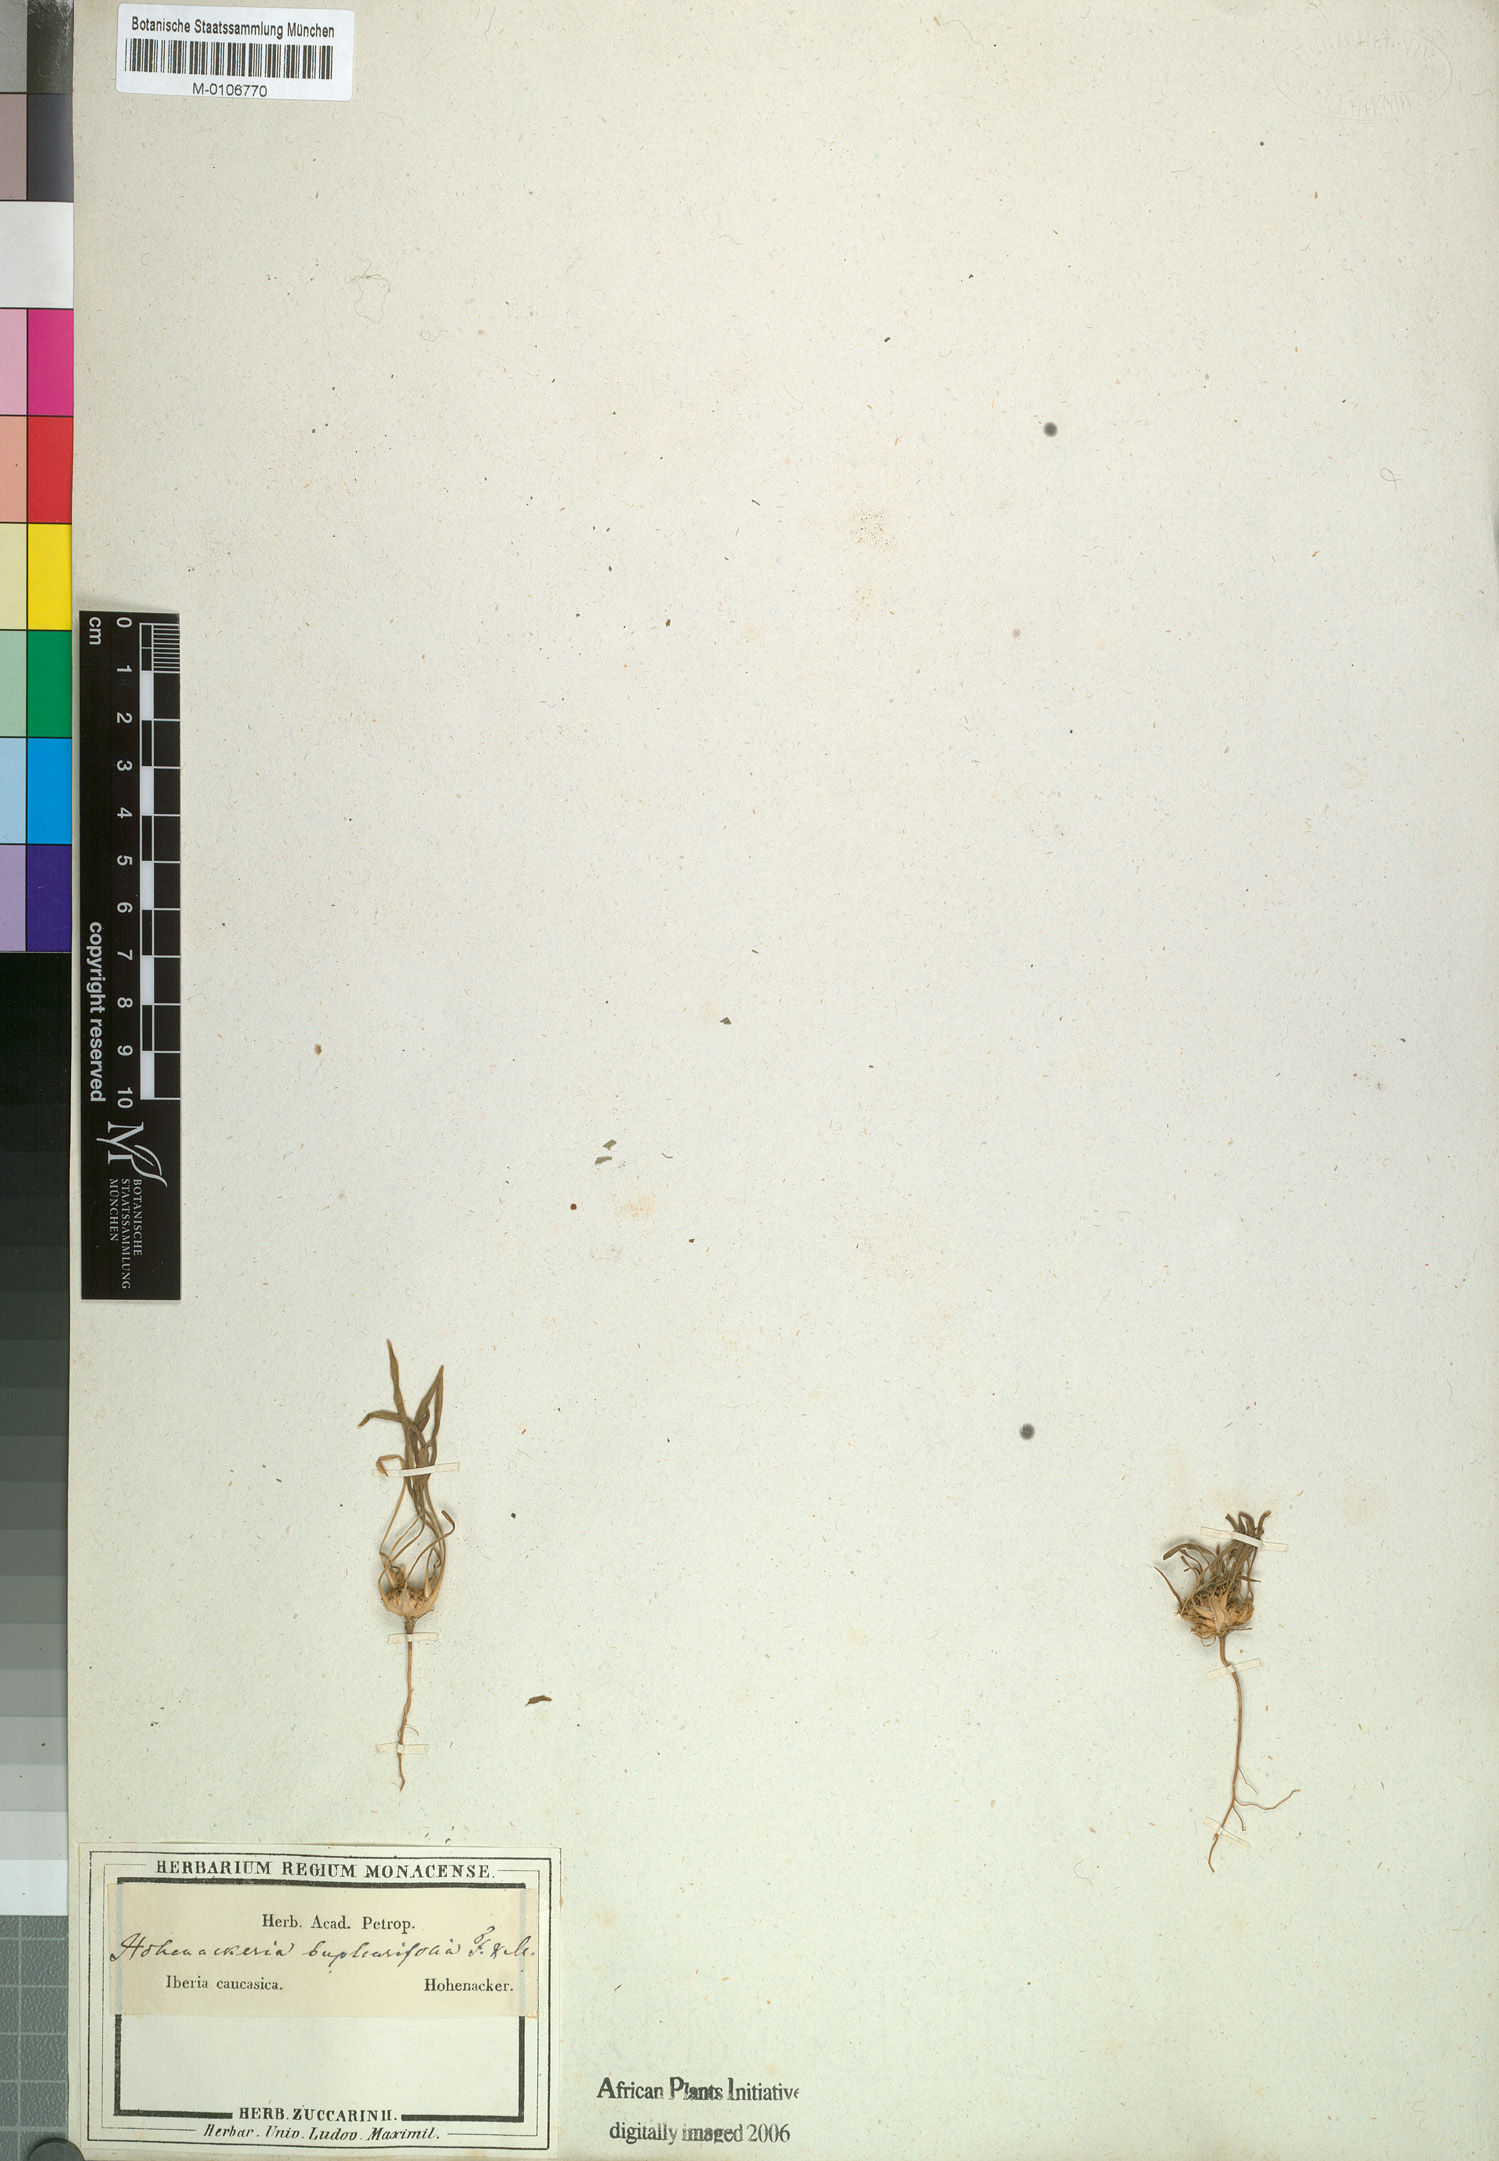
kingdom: Plantae
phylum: Tracheophyta
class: Magnoliopsida
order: Apiales
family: Apiaceae
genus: Hohenackeria
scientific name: Hohenackeria exscapa
